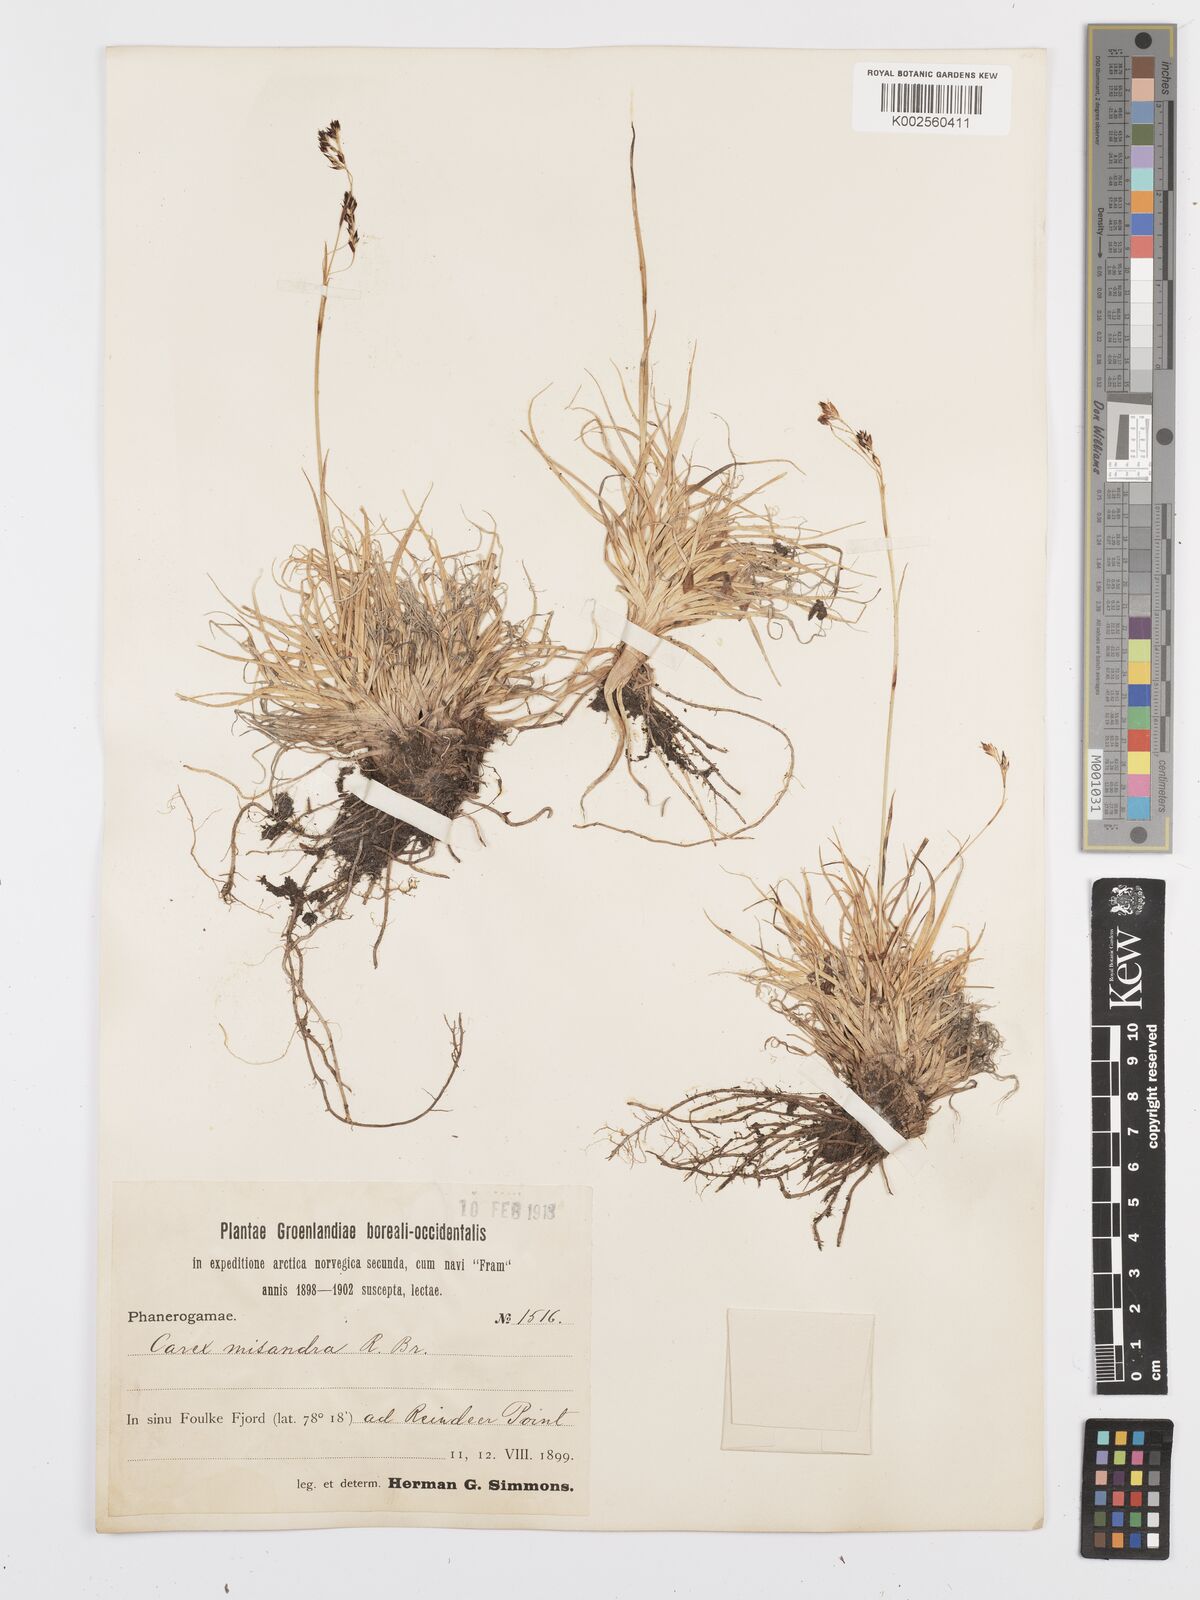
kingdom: Plantae
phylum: Tracheophyta
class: Liliopsida
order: Poales
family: Cyperaceae
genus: Carex
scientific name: Carex fuliginosa
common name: Few-flowered sedge
